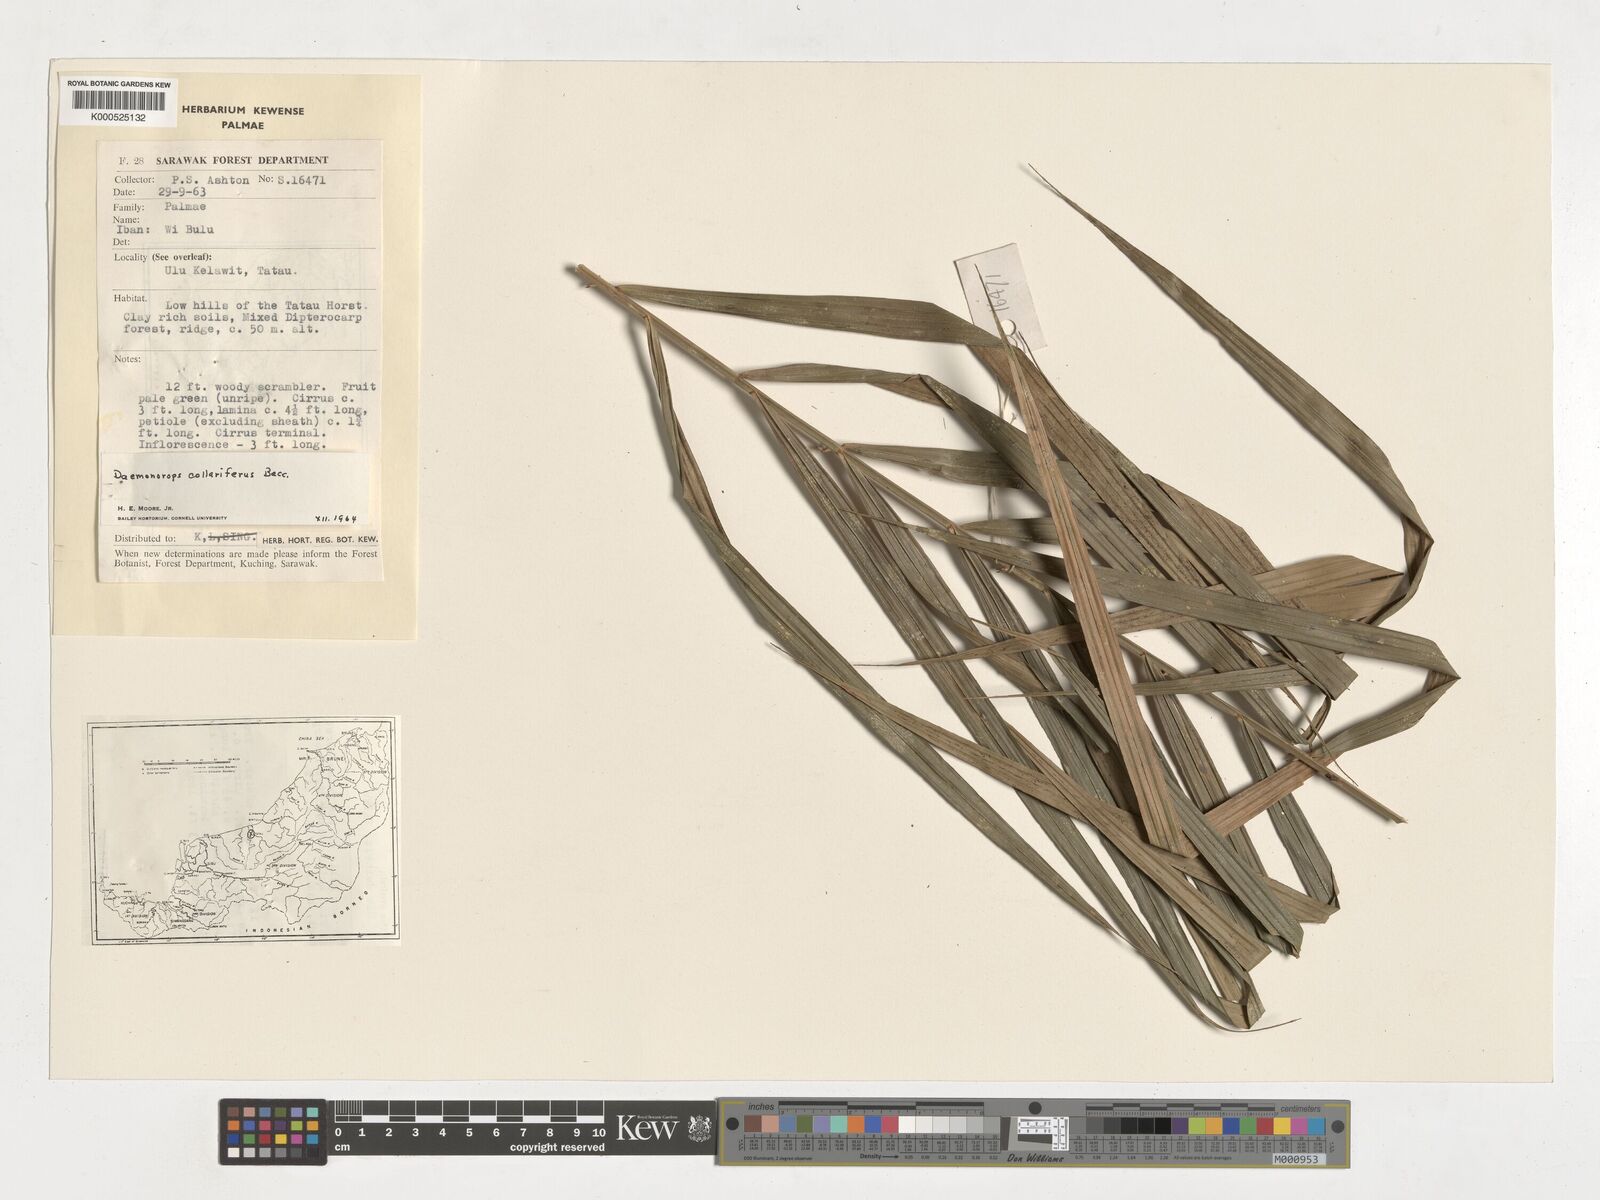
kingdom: Plantae
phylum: Tracheophyta
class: Liliopsida
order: Arecales
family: Arecaceae
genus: Calamus
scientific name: Calamus geniculatus
